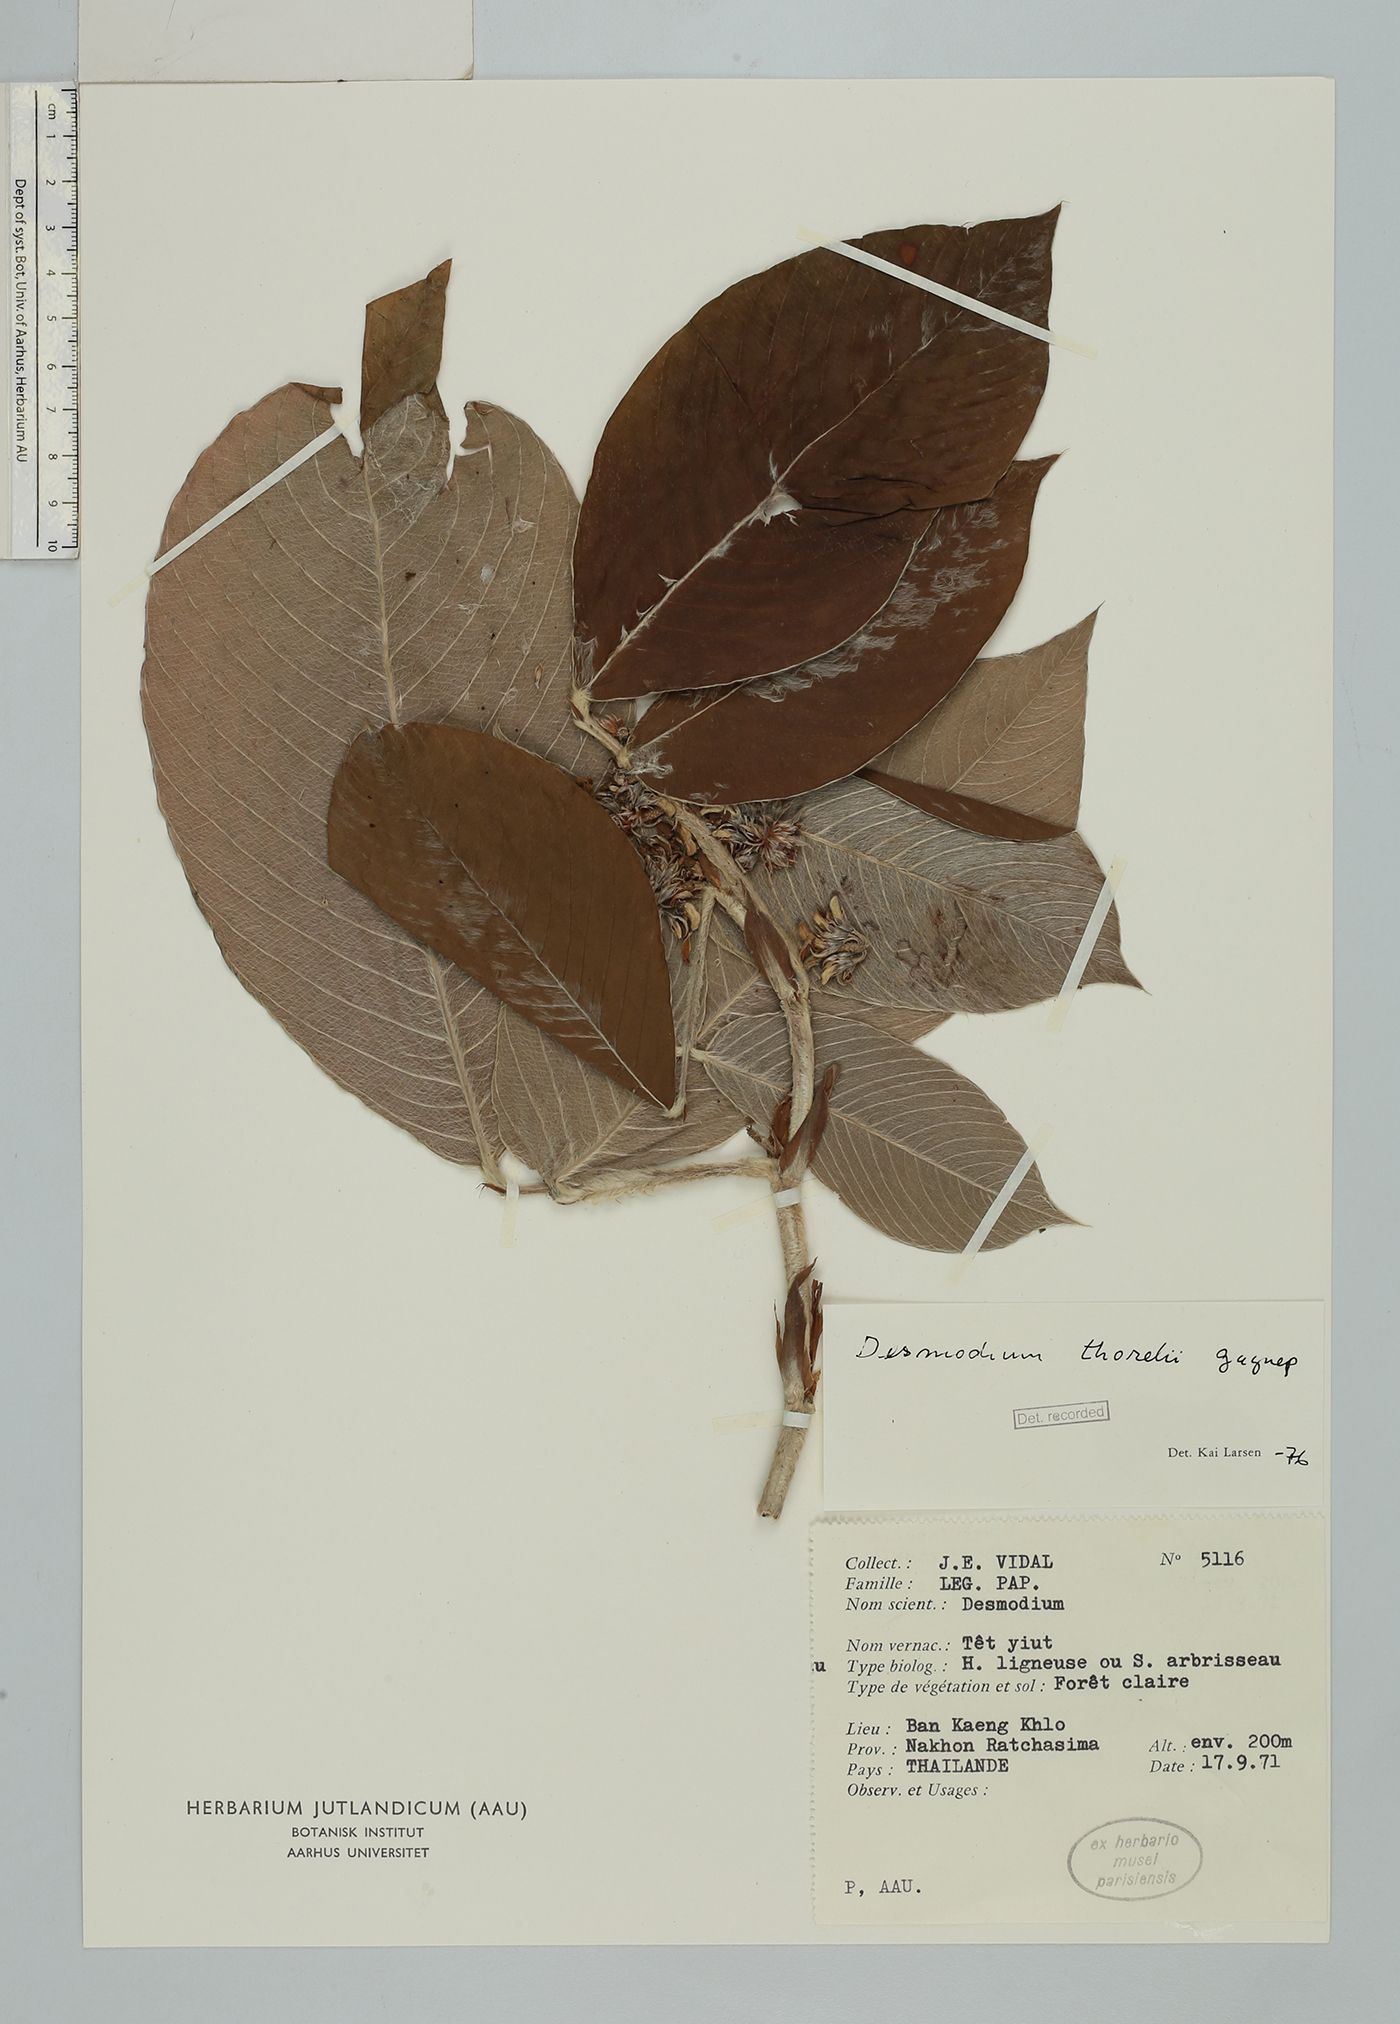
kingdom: Plantae
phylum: Tracheophyta
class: Magnoliopsida
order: Fabales
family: Fabaceae
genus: Dendrolobium
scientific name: Dendrolobium thorelii
